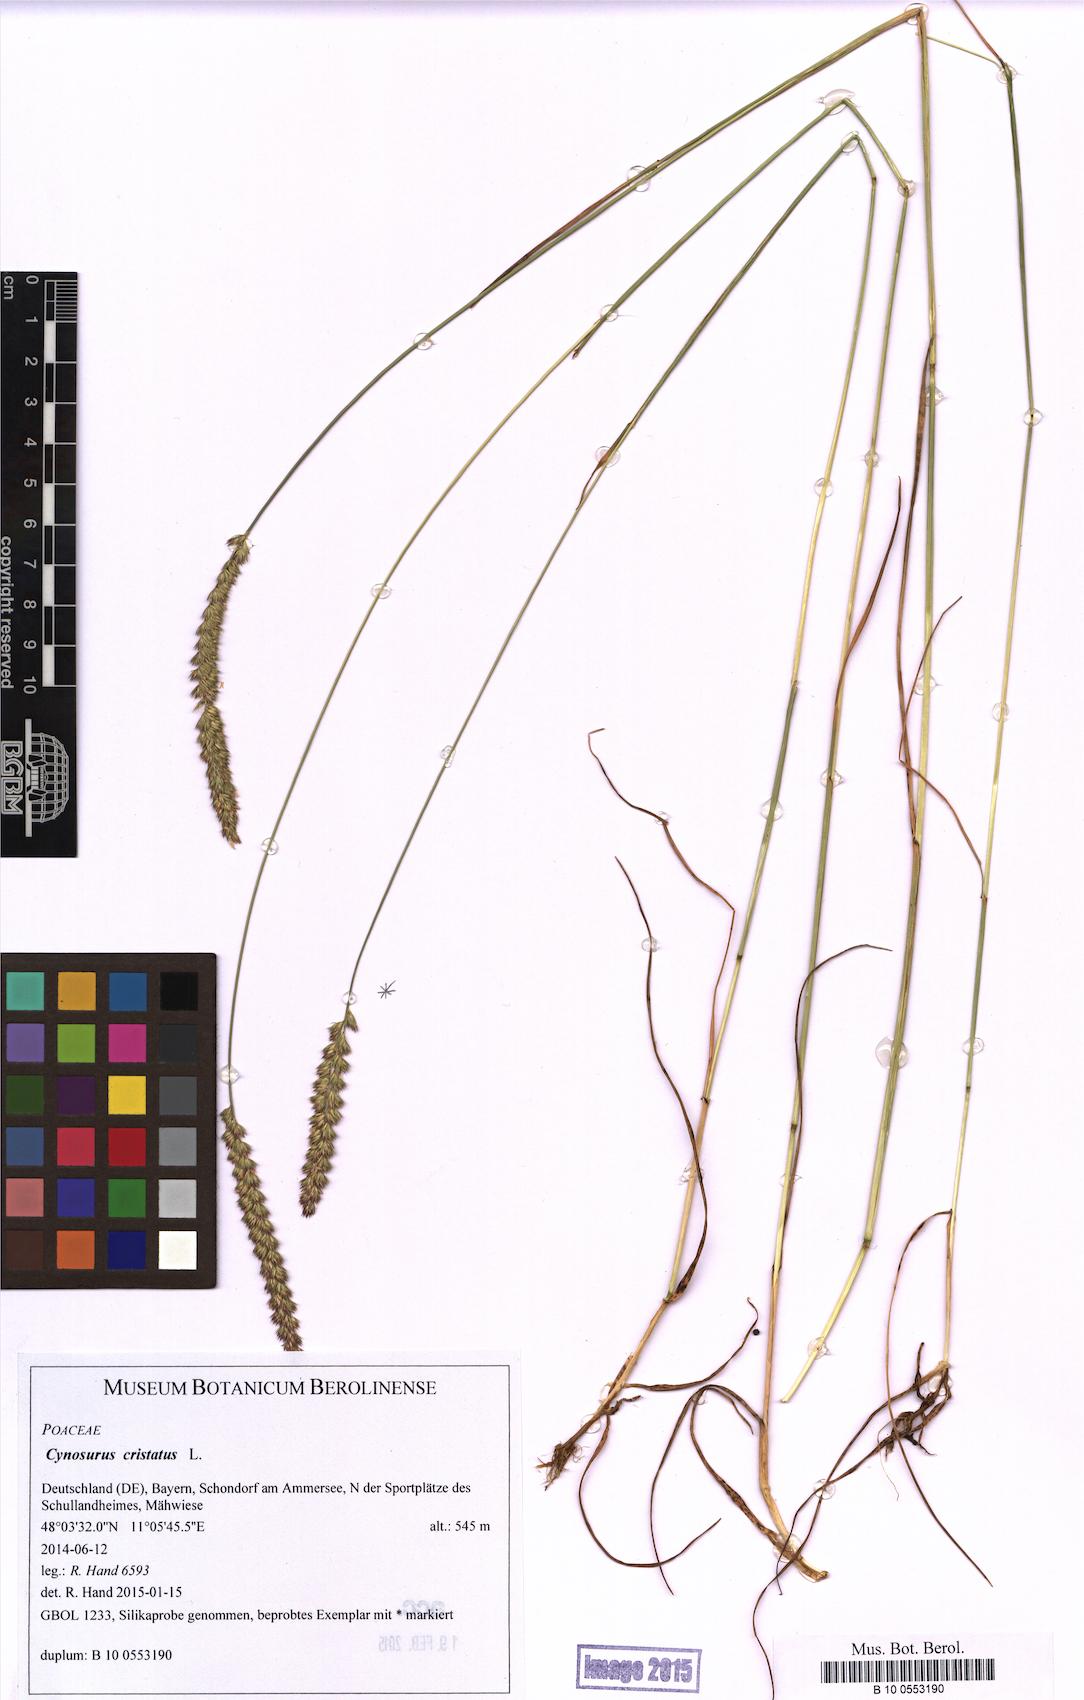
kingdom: Plantae
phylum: Tracheophyta
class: Liliopsida
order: Poales
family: Poaceae
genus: Cynosurus
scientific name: Cynosurus cristatus
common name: Crested dog's-tail
